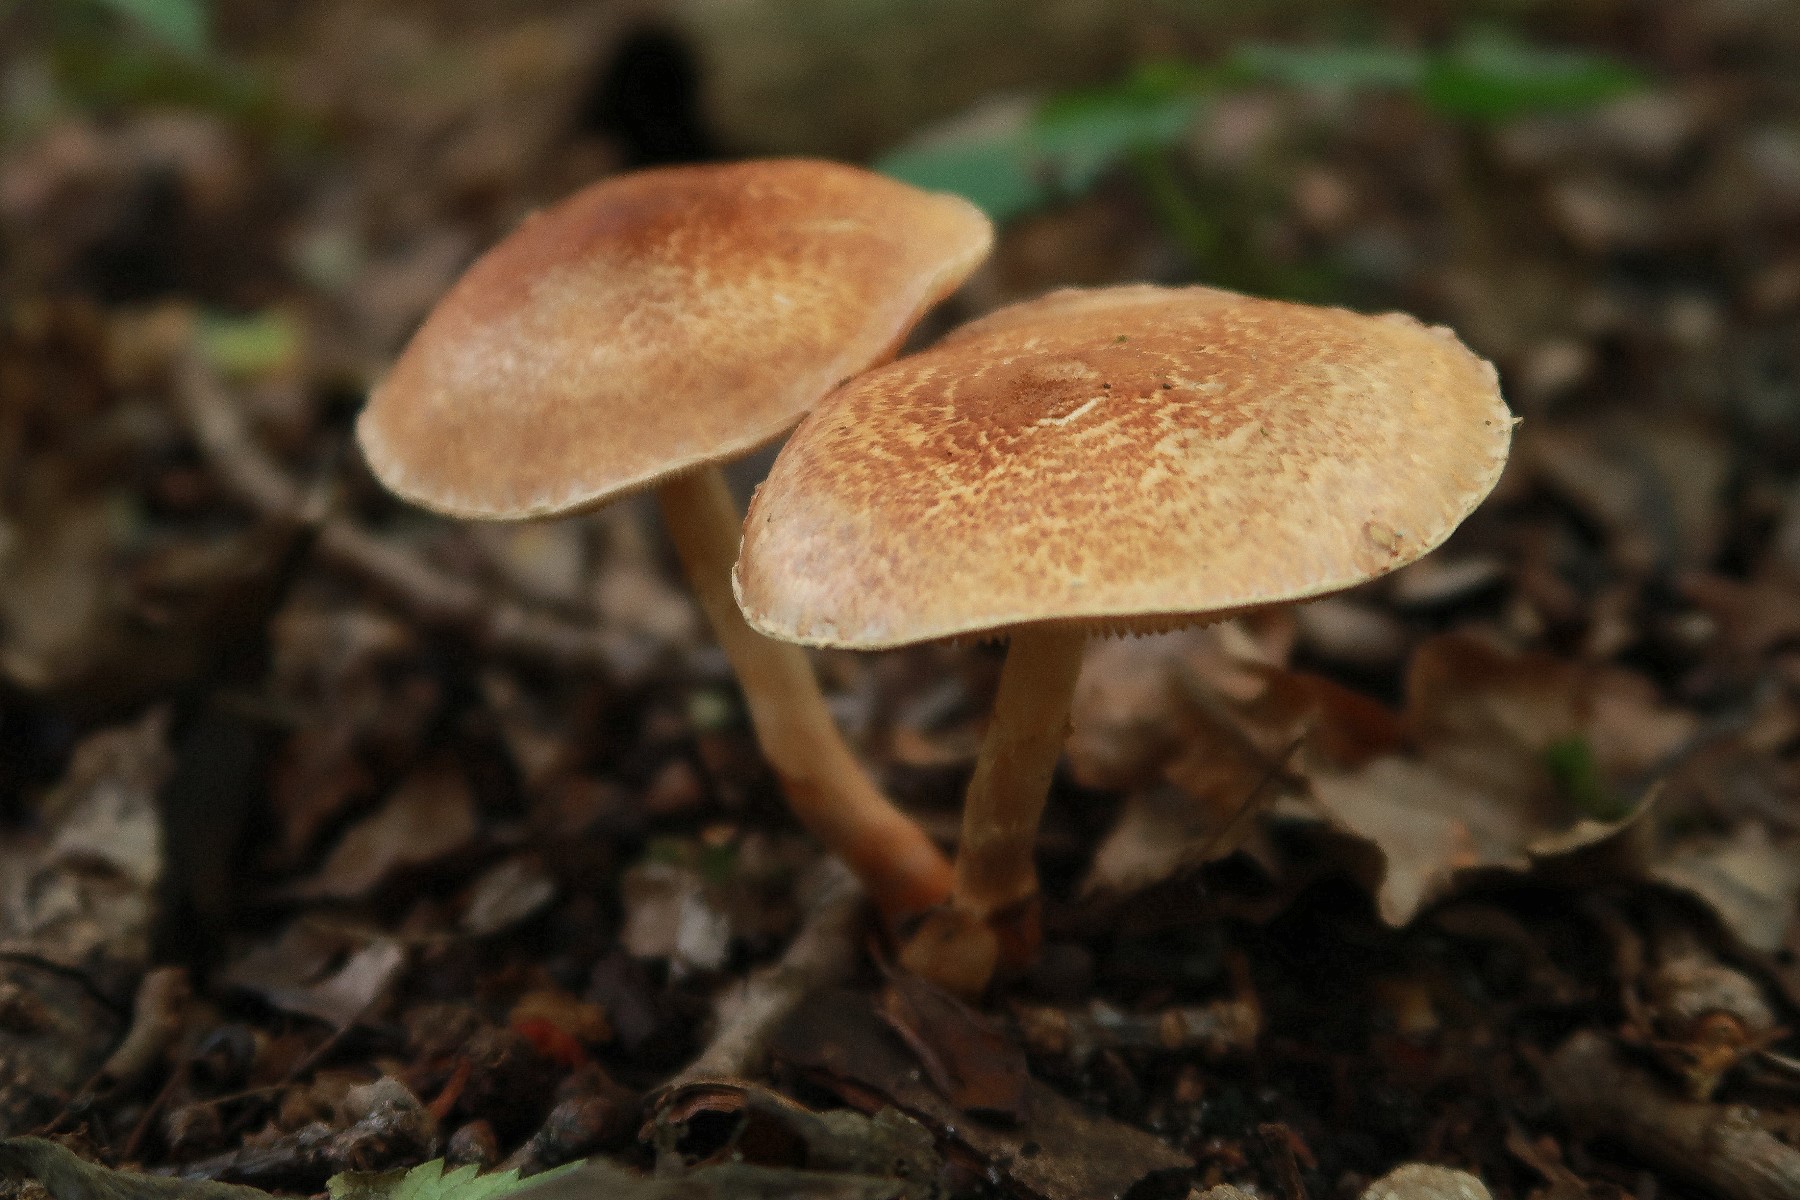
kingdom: Fungi
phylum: Basidiomycota
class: Agaricomycetes
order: Agaricales
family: Agaricaceae
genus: Leucocoprinus
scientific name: Leucocoprinus straminellus
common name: rustbrun parasolhat
